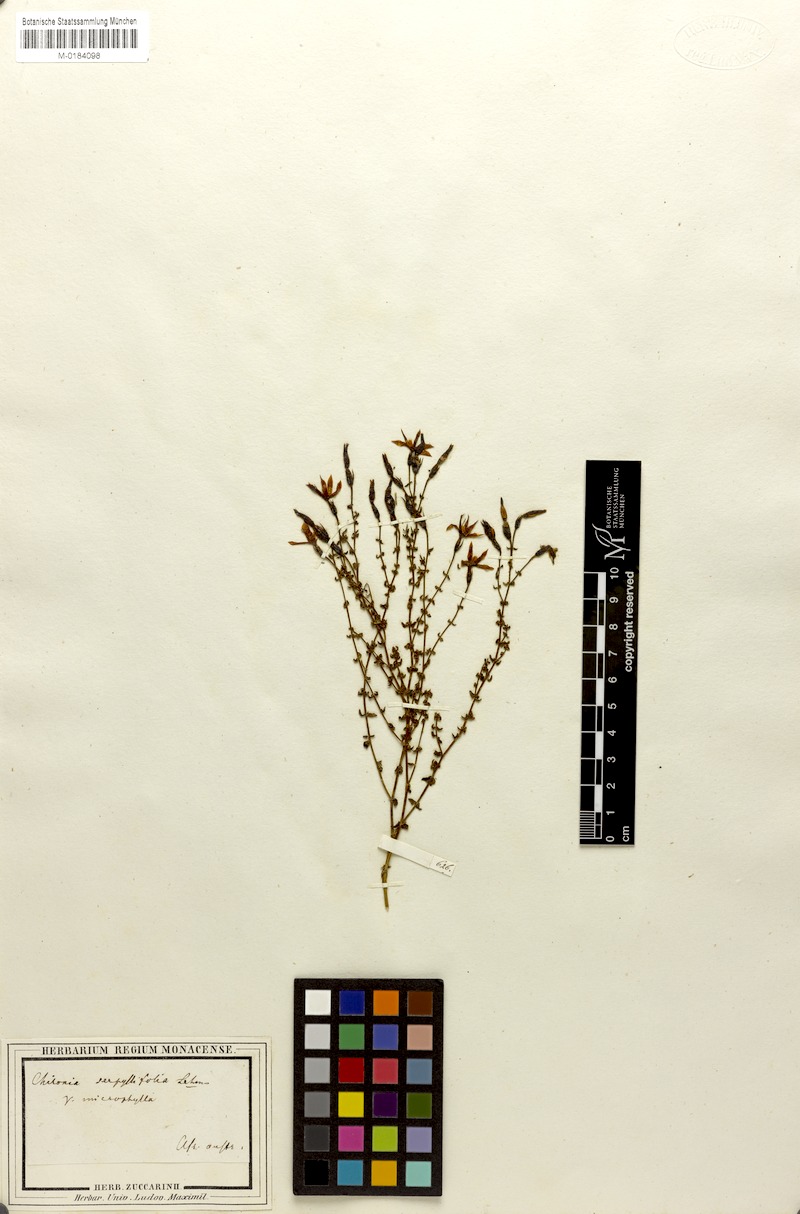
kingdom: Plantae
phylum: Tracheophyta
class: Magnoliopsida
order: Gentianales
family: Gentianaceae
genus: Chironia
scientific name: Chironia serpyllifolia
